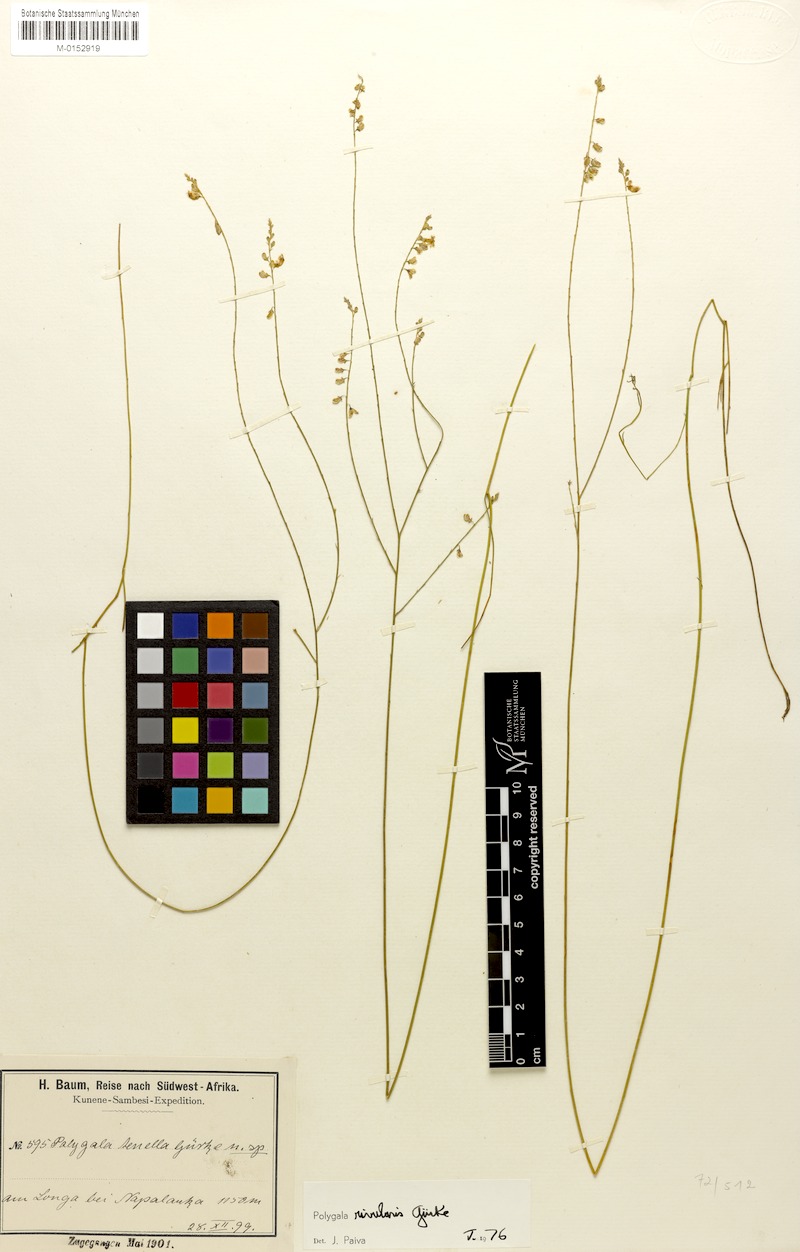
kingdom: Plantae
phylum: Tracheophyta
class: Magnoliopsida
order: Fabales
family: Polygalaceae
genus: Polygala
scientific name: Polygala rivularis
